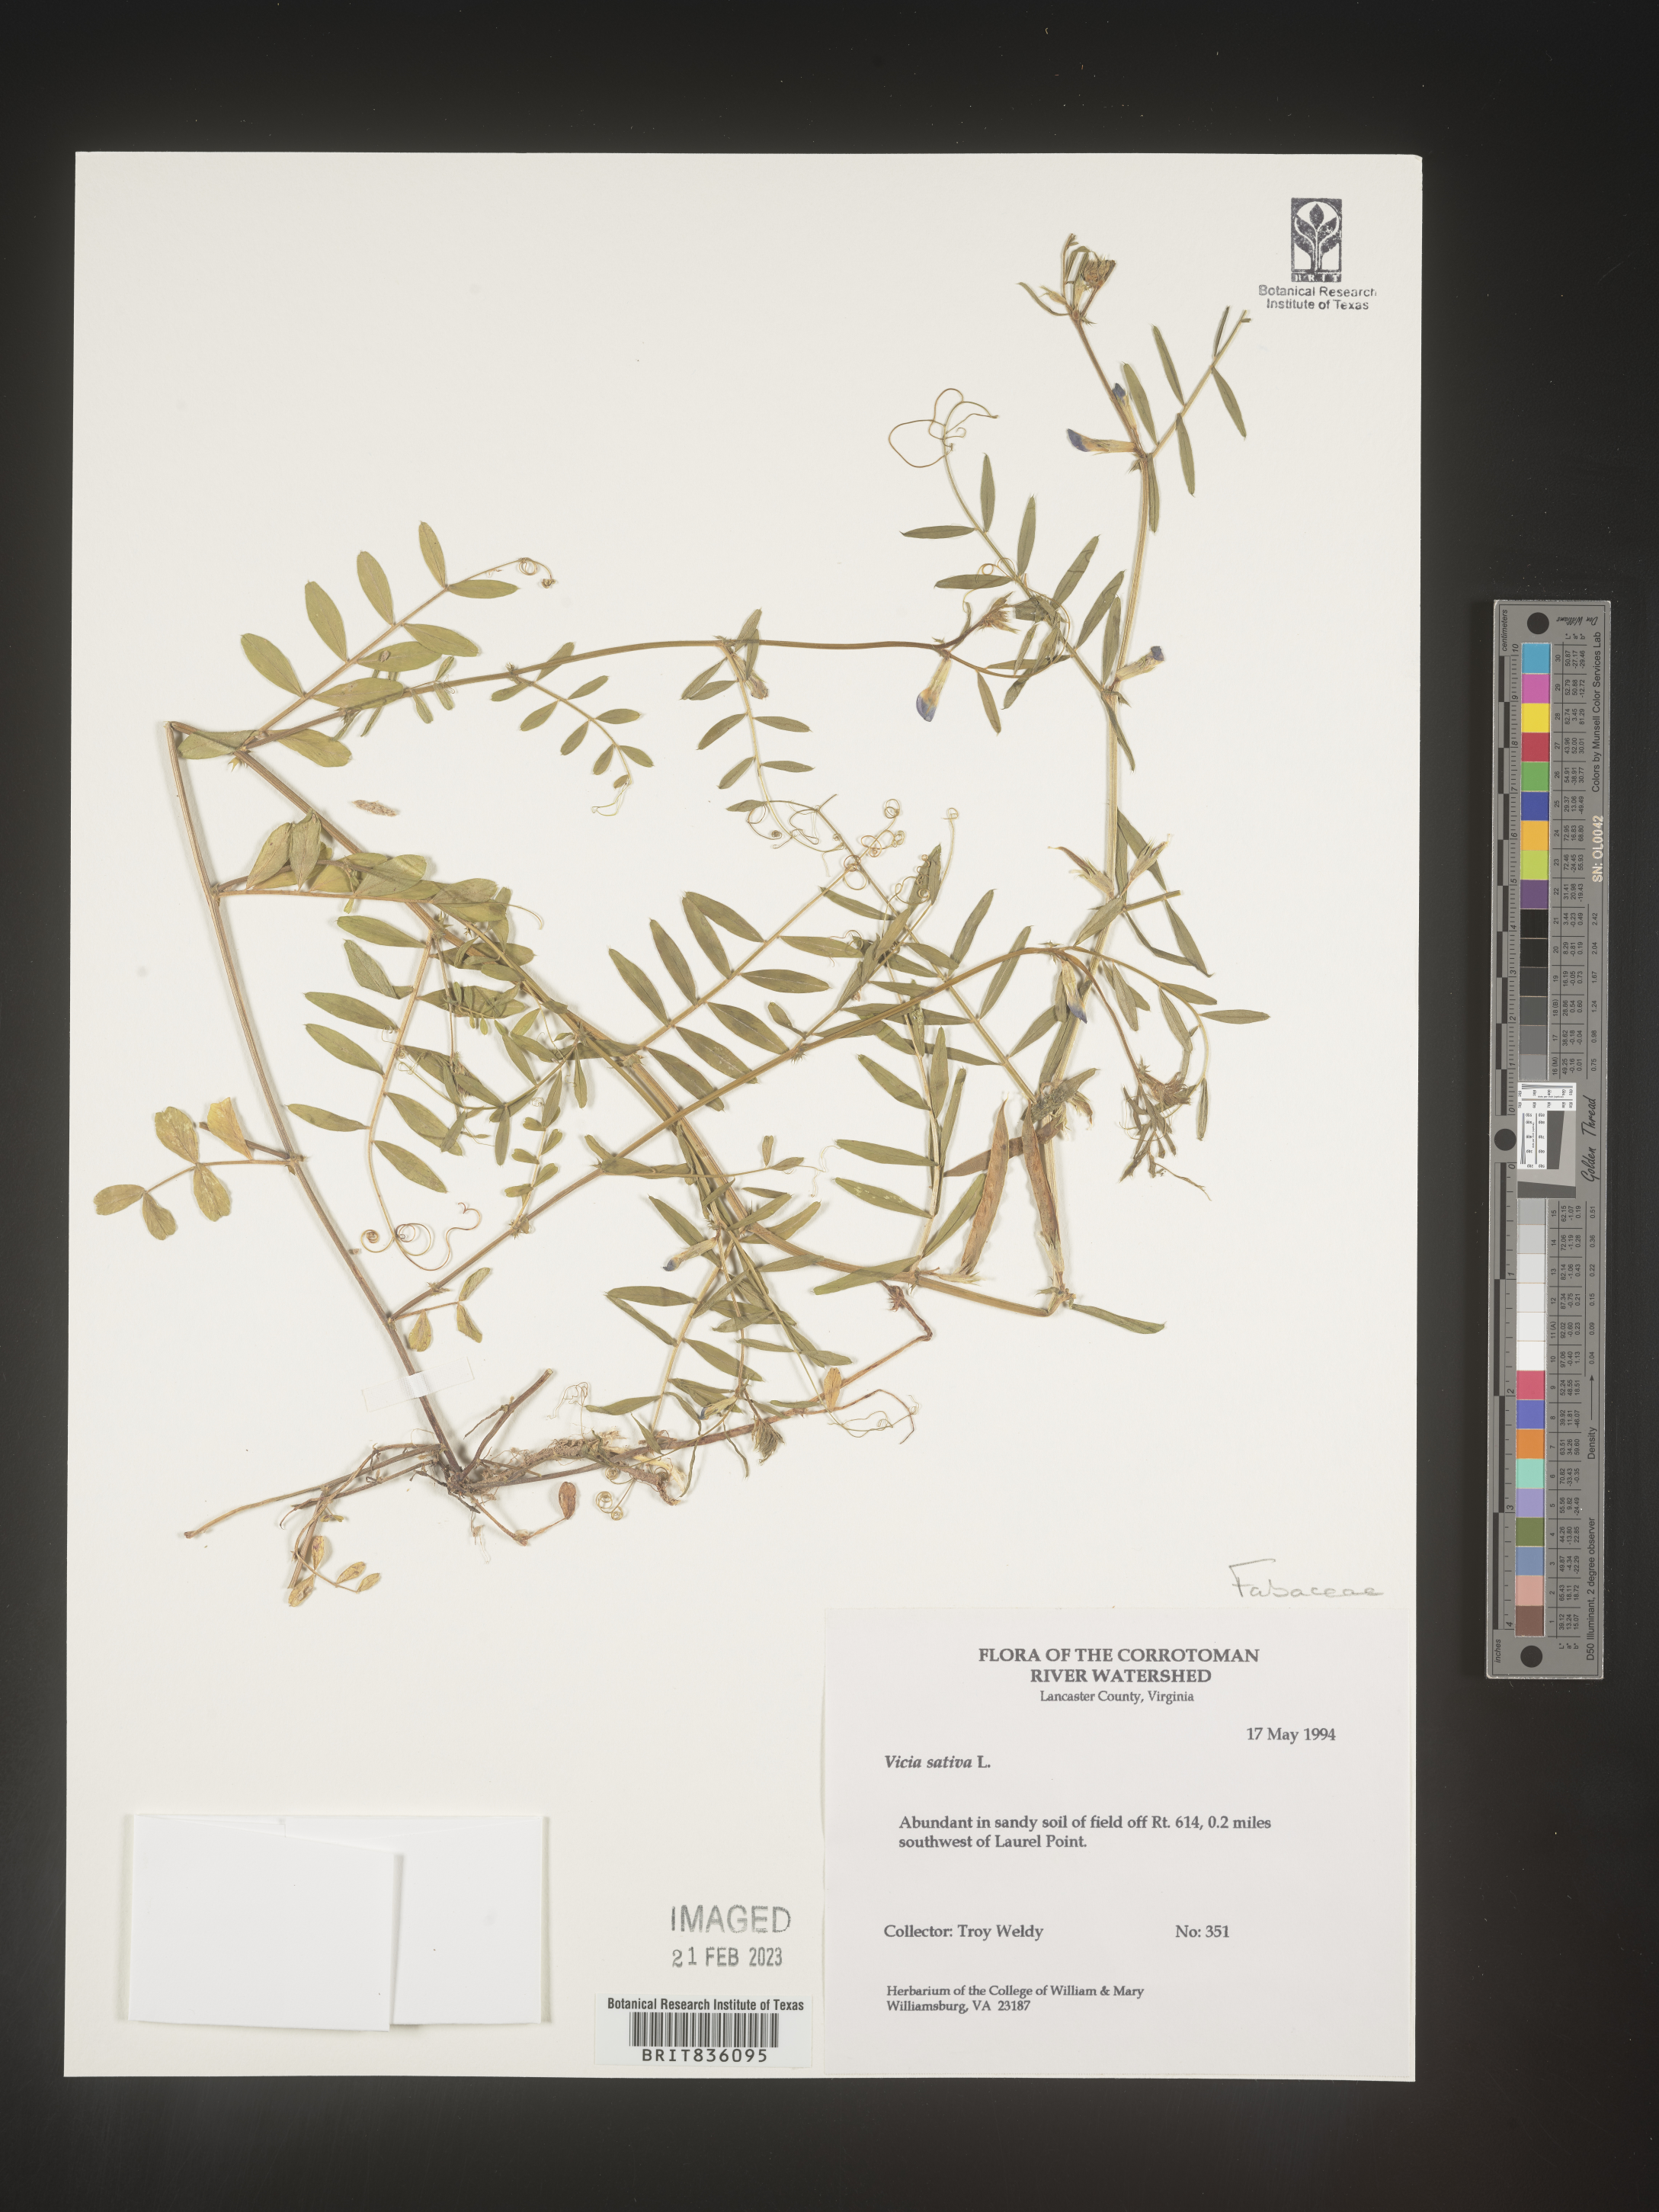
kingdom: Plantae
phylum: Tracheophyta
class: Magnoliopsida
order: Fabales
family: Fabaceae
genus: Vicia
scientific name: Vicia sativa
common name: Garden vetch
